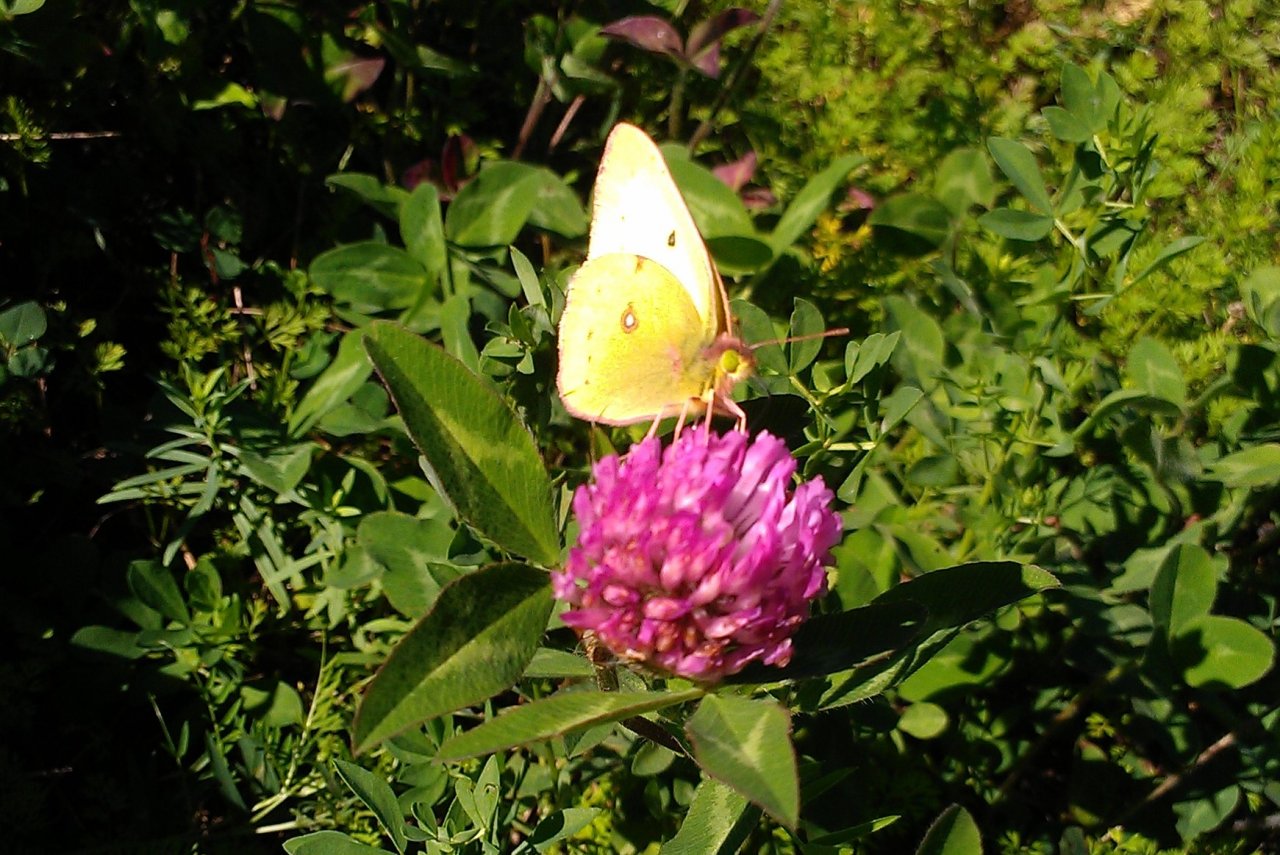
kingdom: Animalia
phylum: Arthropoda
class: Insecta
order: Lepidoptera
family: Pieridae
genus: Colias
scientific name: Colias philodice
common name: Clouded Sulphur
